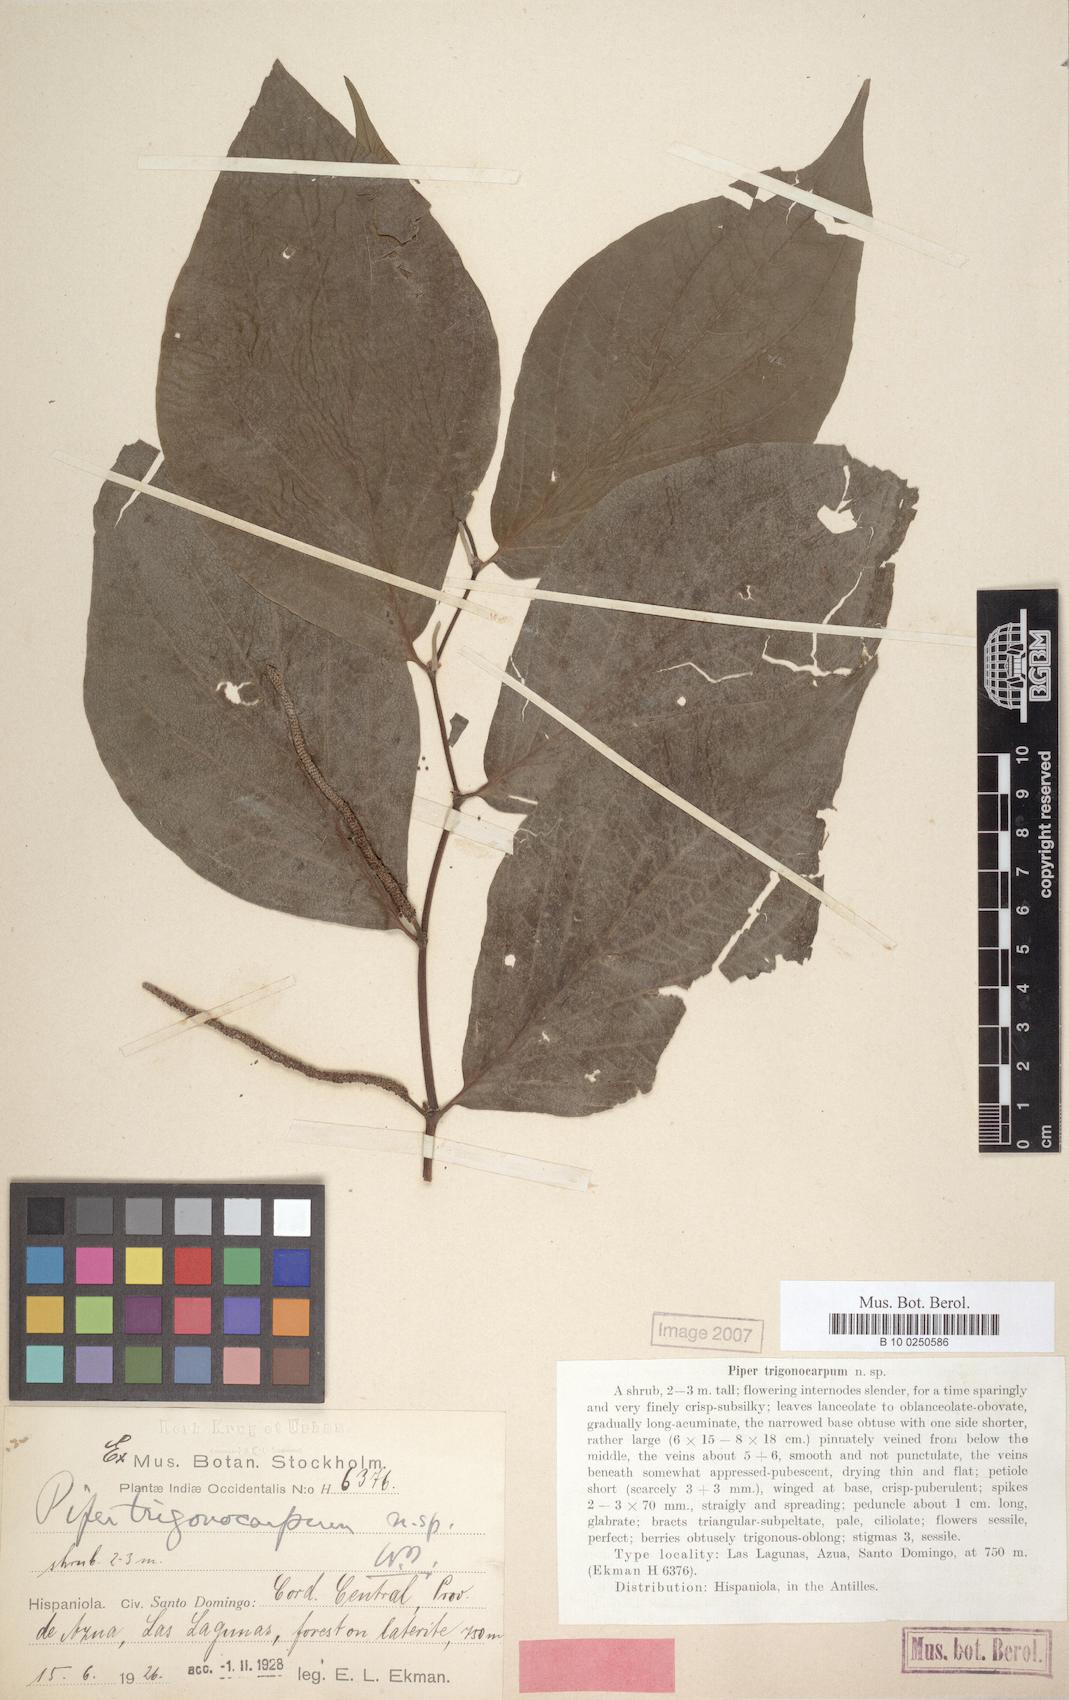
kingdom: Plantae
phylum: Tracheophyta
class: Magnoliopsida
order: Piperales
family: Piperaceae
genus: Piper
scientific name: Piper trigonocarpum
